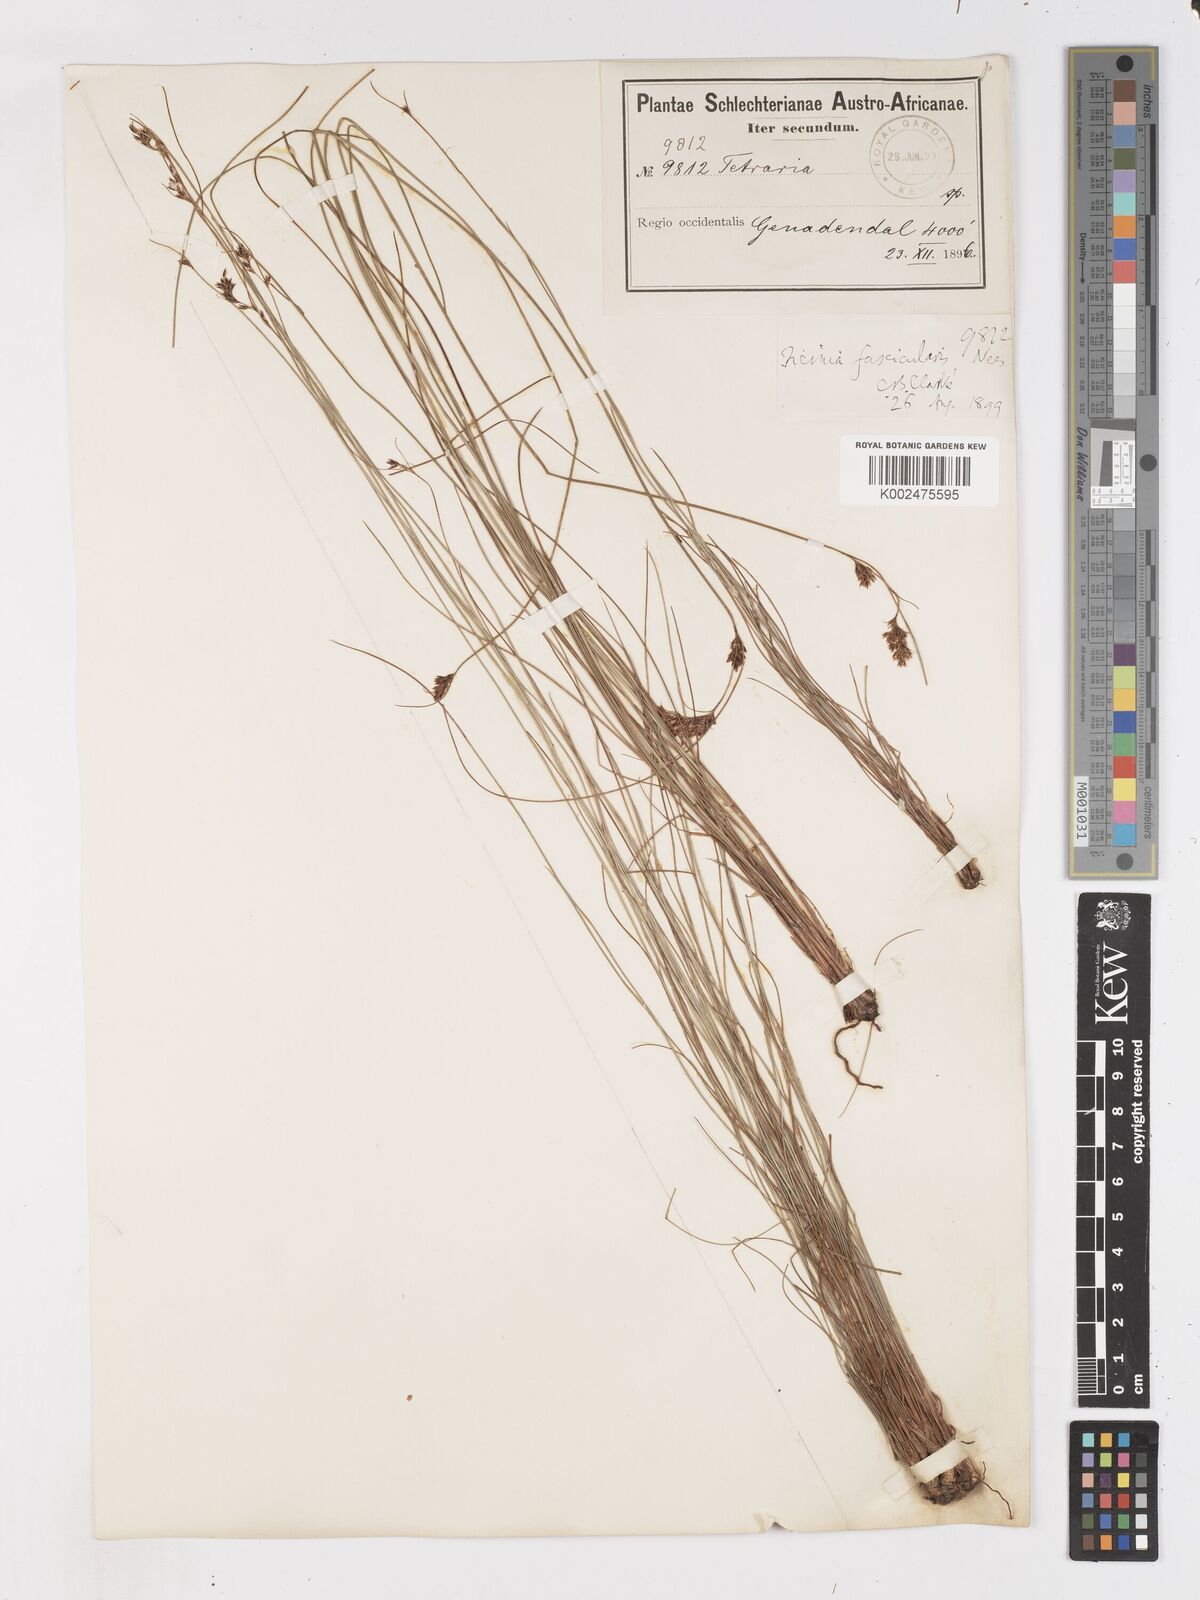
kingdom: Plantae
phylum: Tracheophyta
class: Liliopsida
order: Poales
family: Cyperaceae
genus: Ficinia
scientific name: Ficinia fascicularis
